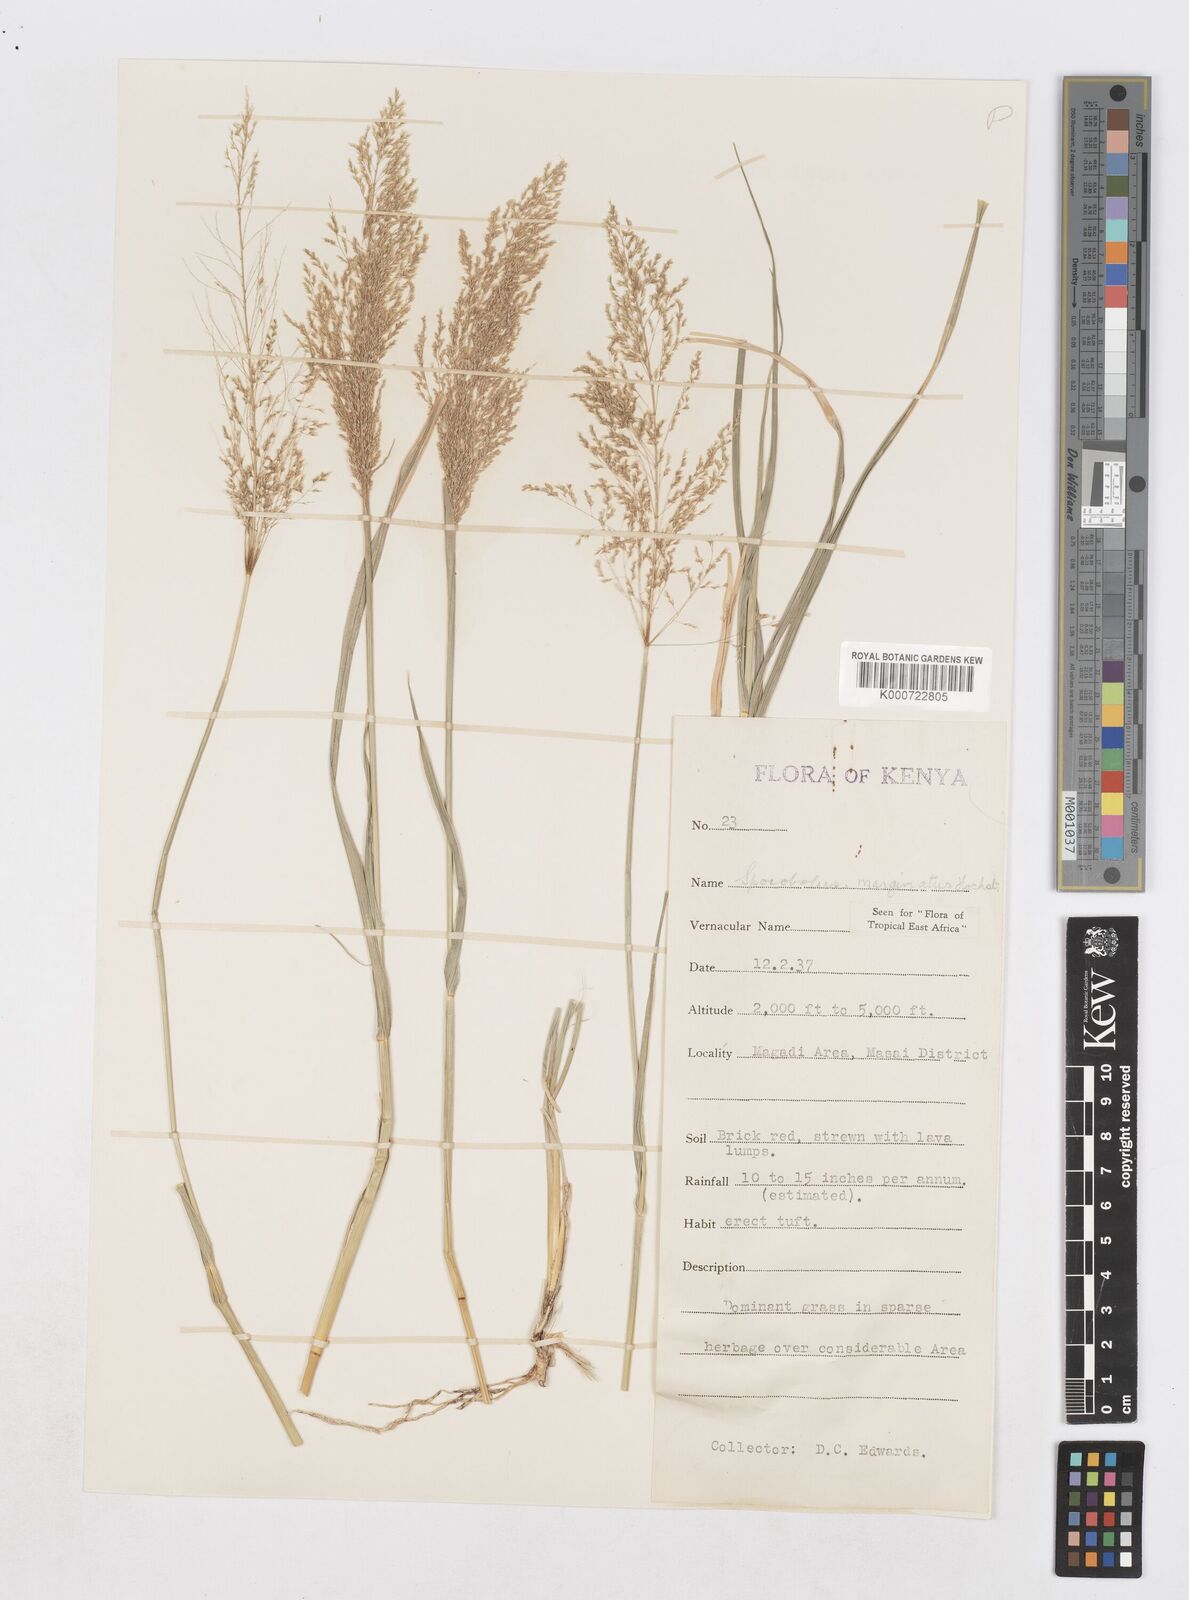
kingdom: Plantae
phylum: Tracheophyta
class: Liliopsida
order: Poales
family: Poaceae
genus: Sporobolus
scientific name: Sporobolus ioclados
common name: Pan dropseed
